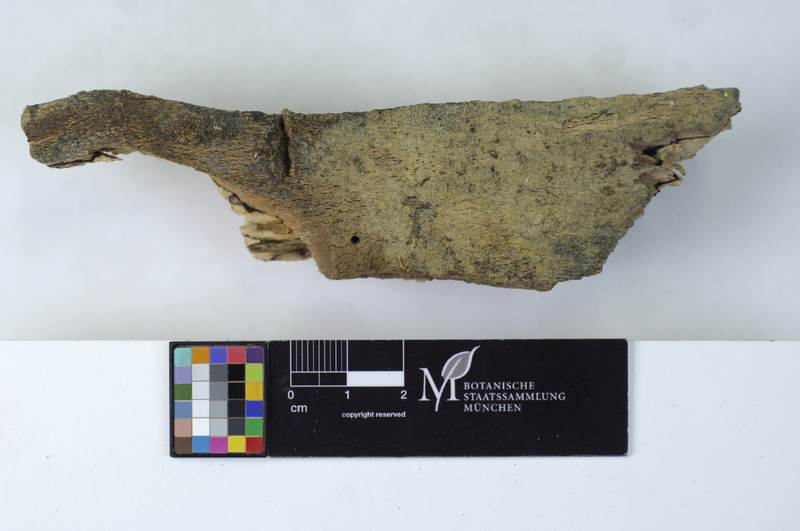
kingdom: Fungi
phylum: Basidiomycota
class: Agaricomycetes
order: Cantharellales
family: Botryobasidiaceae
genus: Botryobasidium
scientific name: Botryobasidium vagum
